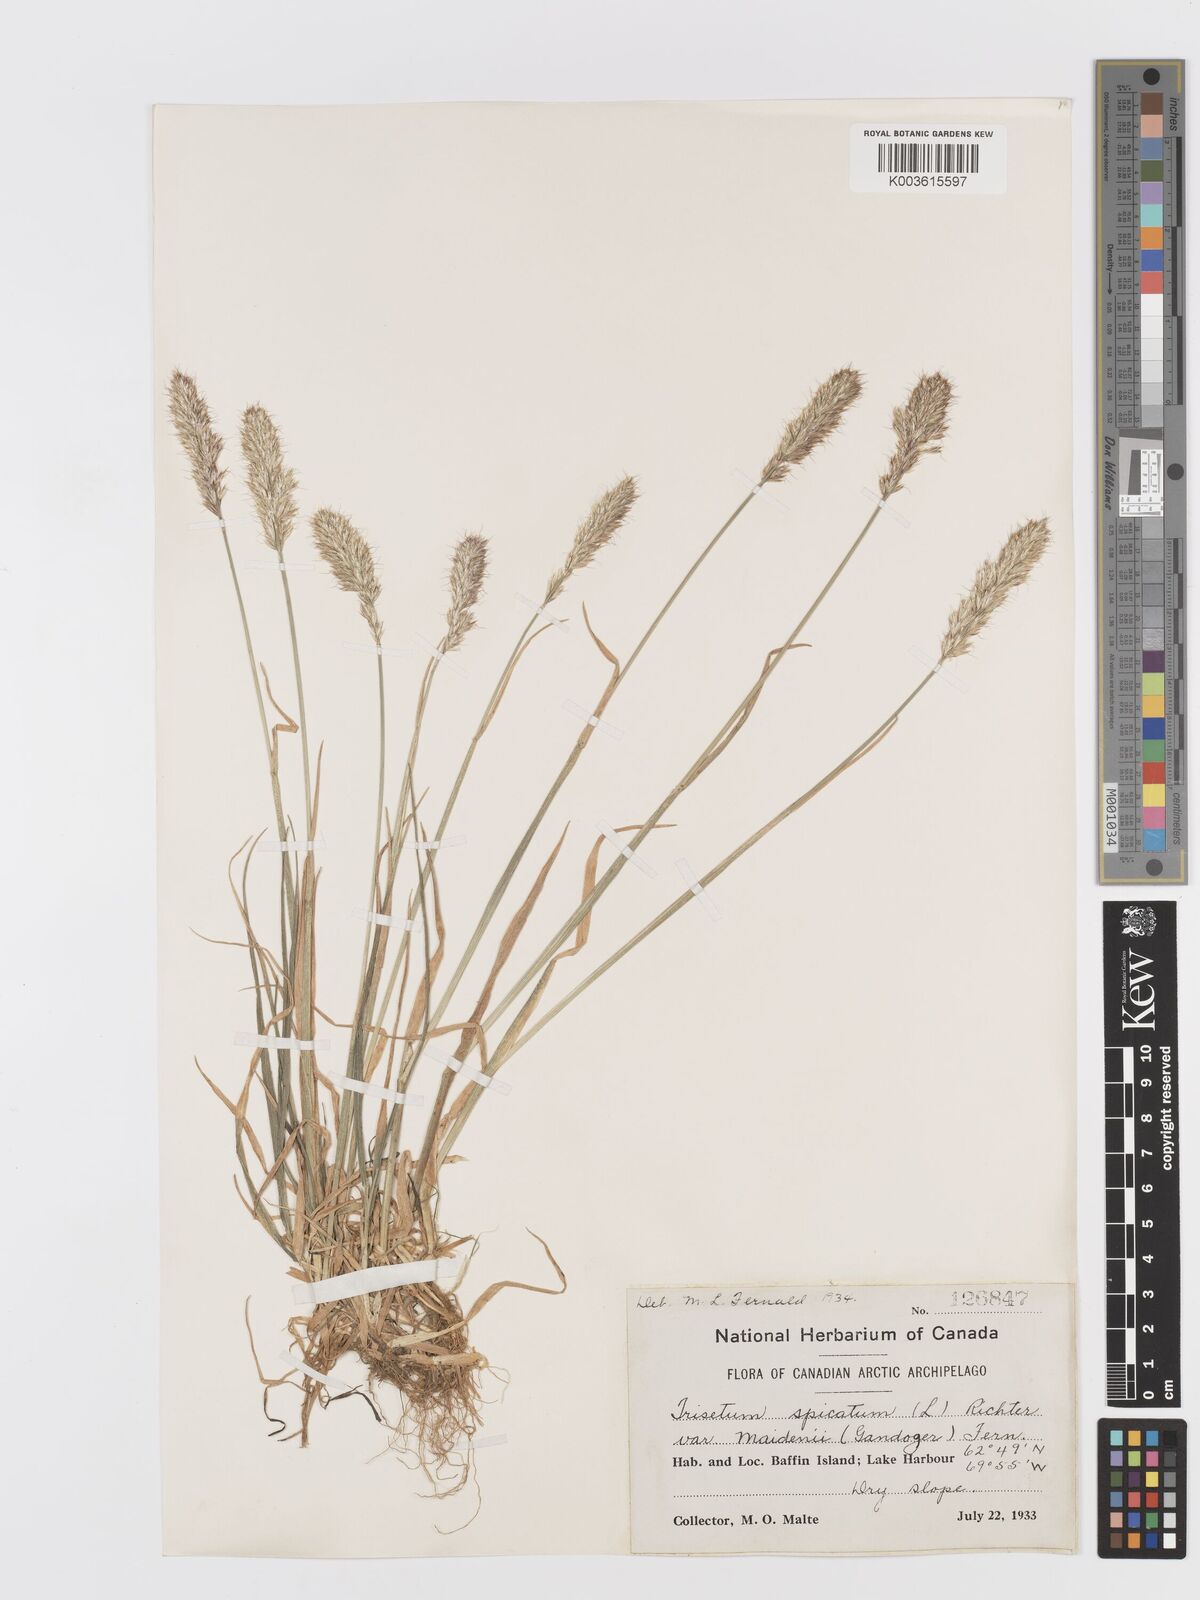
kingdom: Plantae
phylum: Tracheophyta
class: Liliopsida
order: Poales
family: Poaceae
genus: Koeleria
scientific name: Koeleria spicata
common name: Mountain trisetum
